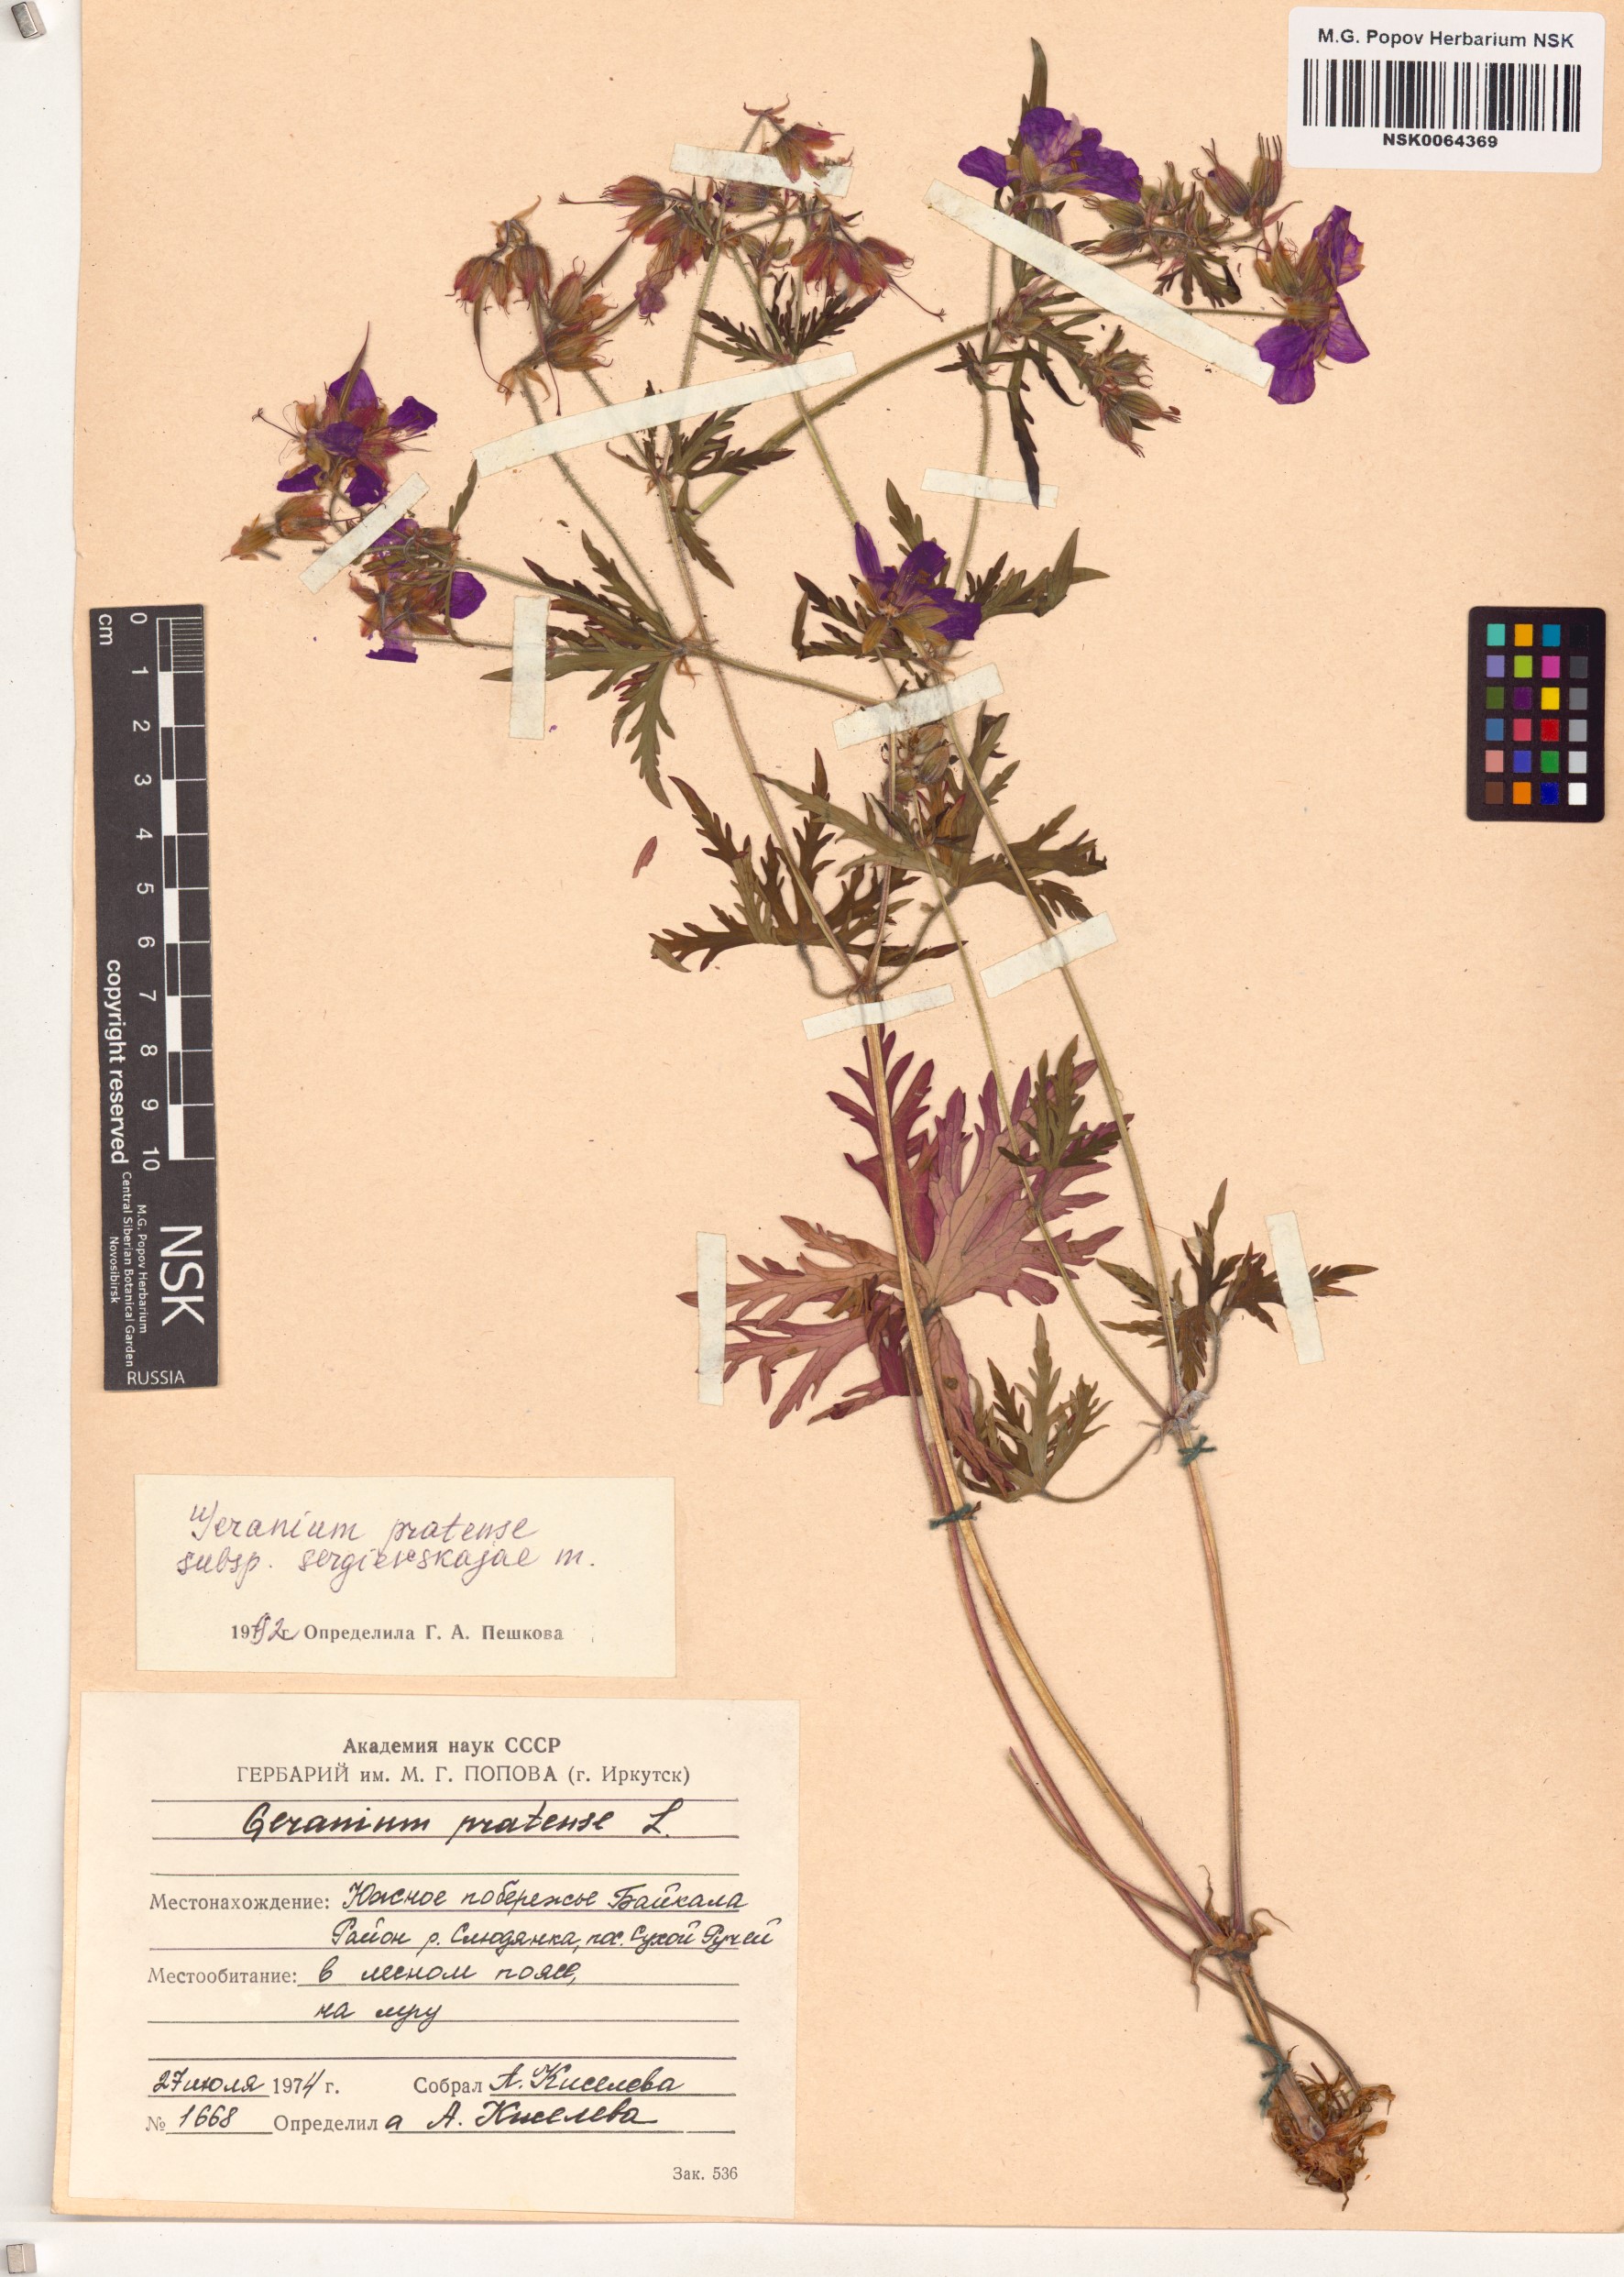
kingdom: Plantae
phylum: Tracheophyta
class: Magnoliopsida
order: Geraniales
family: Geraniaceae
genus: Geranium
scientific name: Geranium pratense
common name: Meadow crane's-bill
